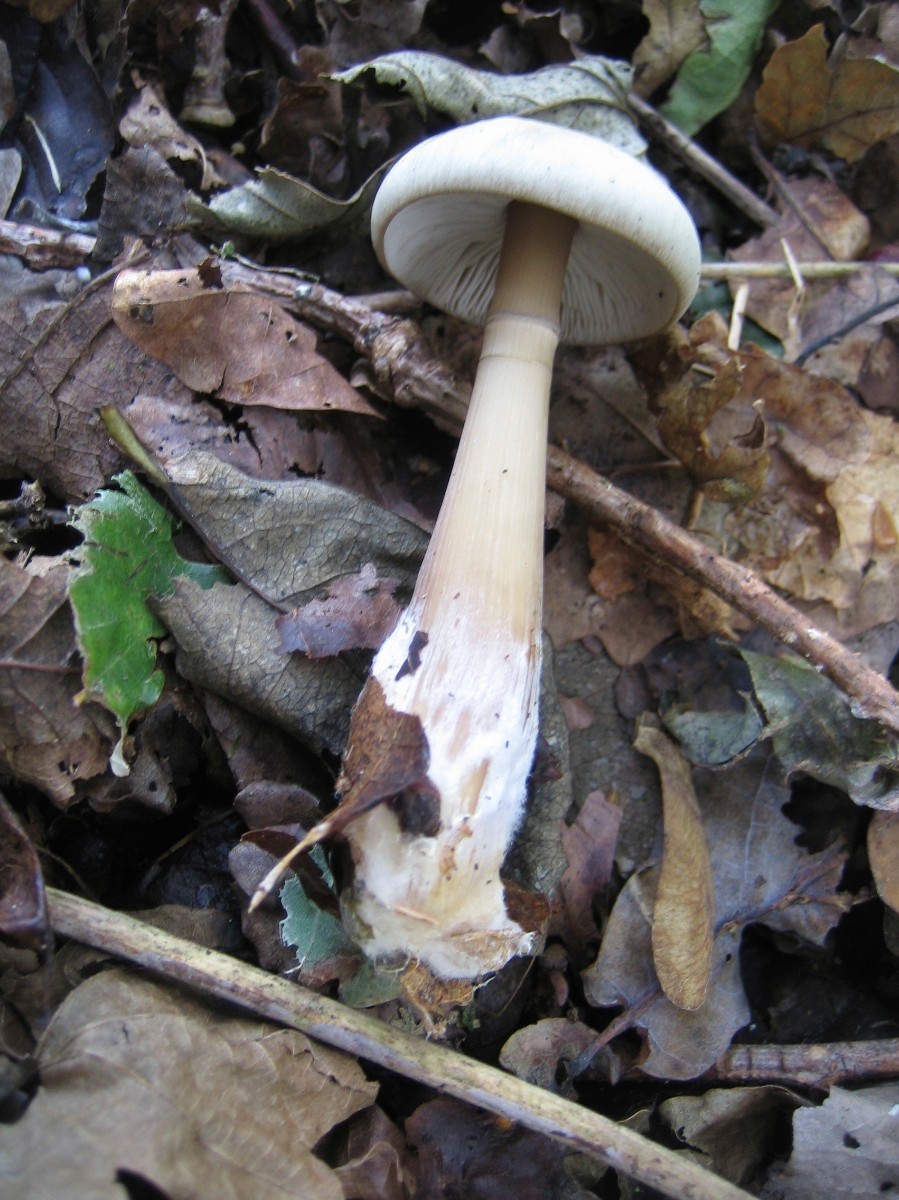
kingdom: Fungi
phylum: Basidiomycota
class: Agaricomycetes
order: Agaricales
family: Omphalotaceae
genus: Rhodocollybia
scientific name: Rhodocollybia asema
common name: horngrå fladhat
